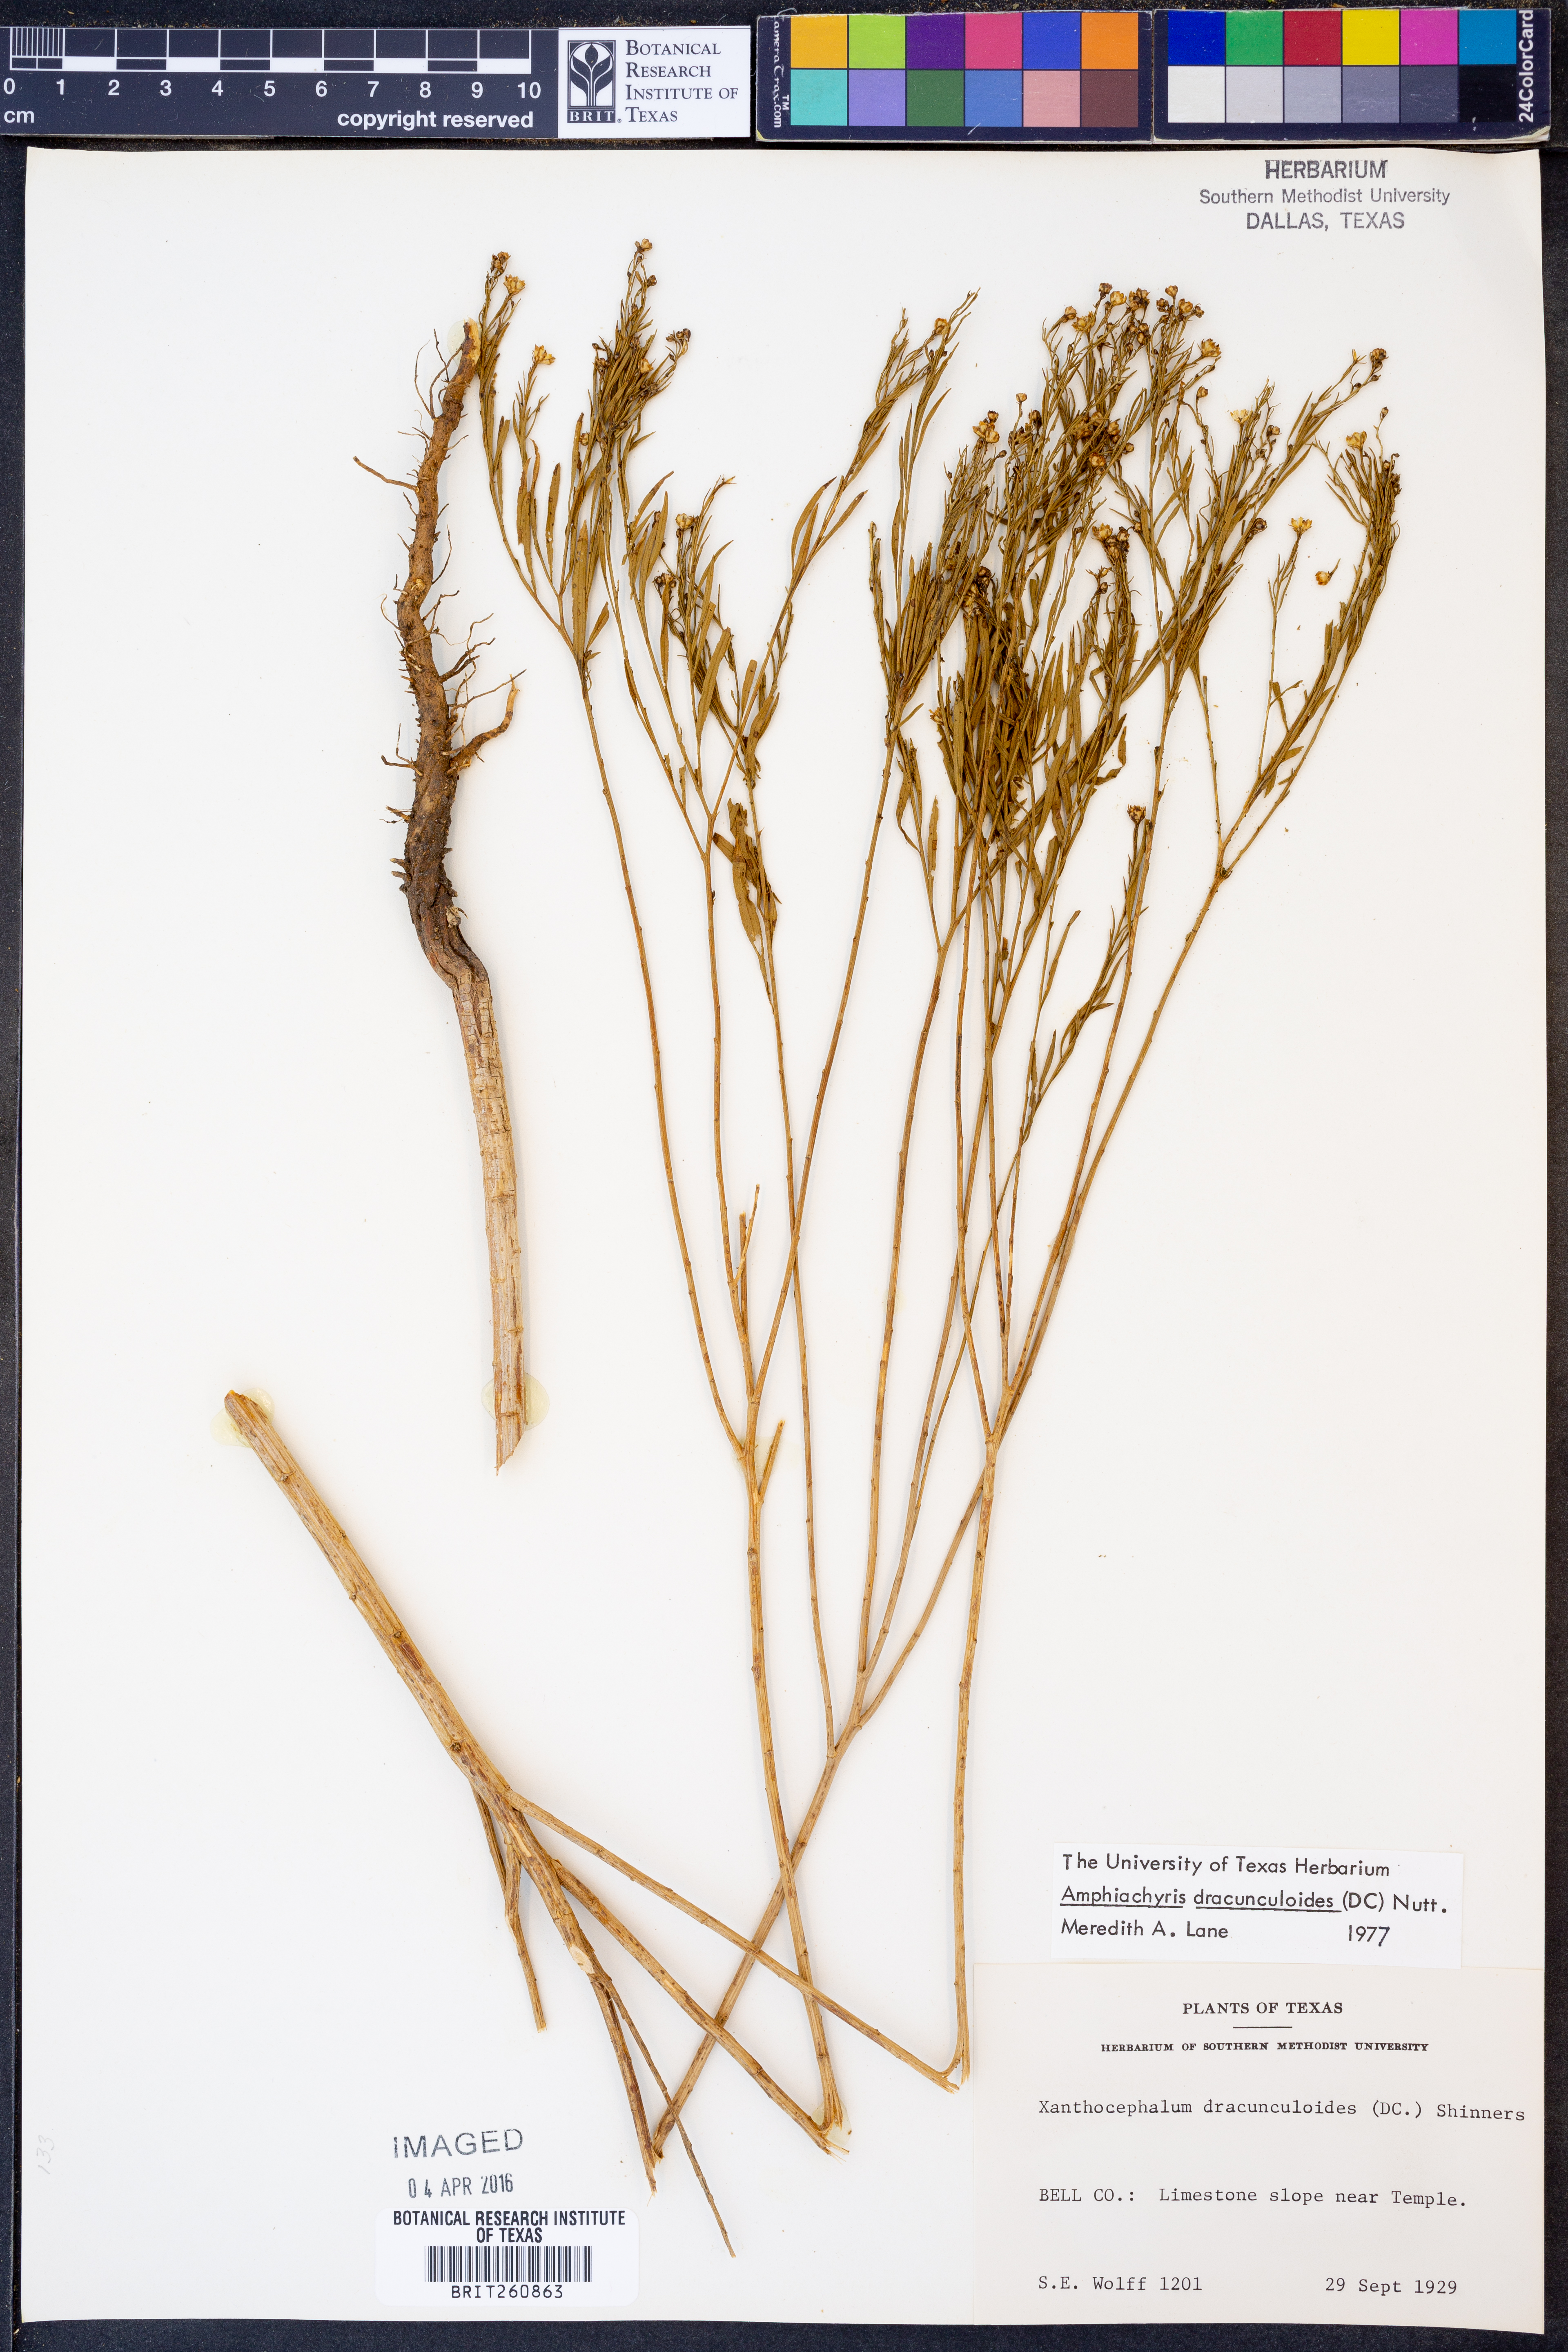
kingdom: Plantae
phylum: Tracheophyta
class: Magnoliopsida
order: Asterales
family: Asteraceae
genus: Amphiachyris
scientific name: Amphiachyris dracunculoides
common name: Broomweed
